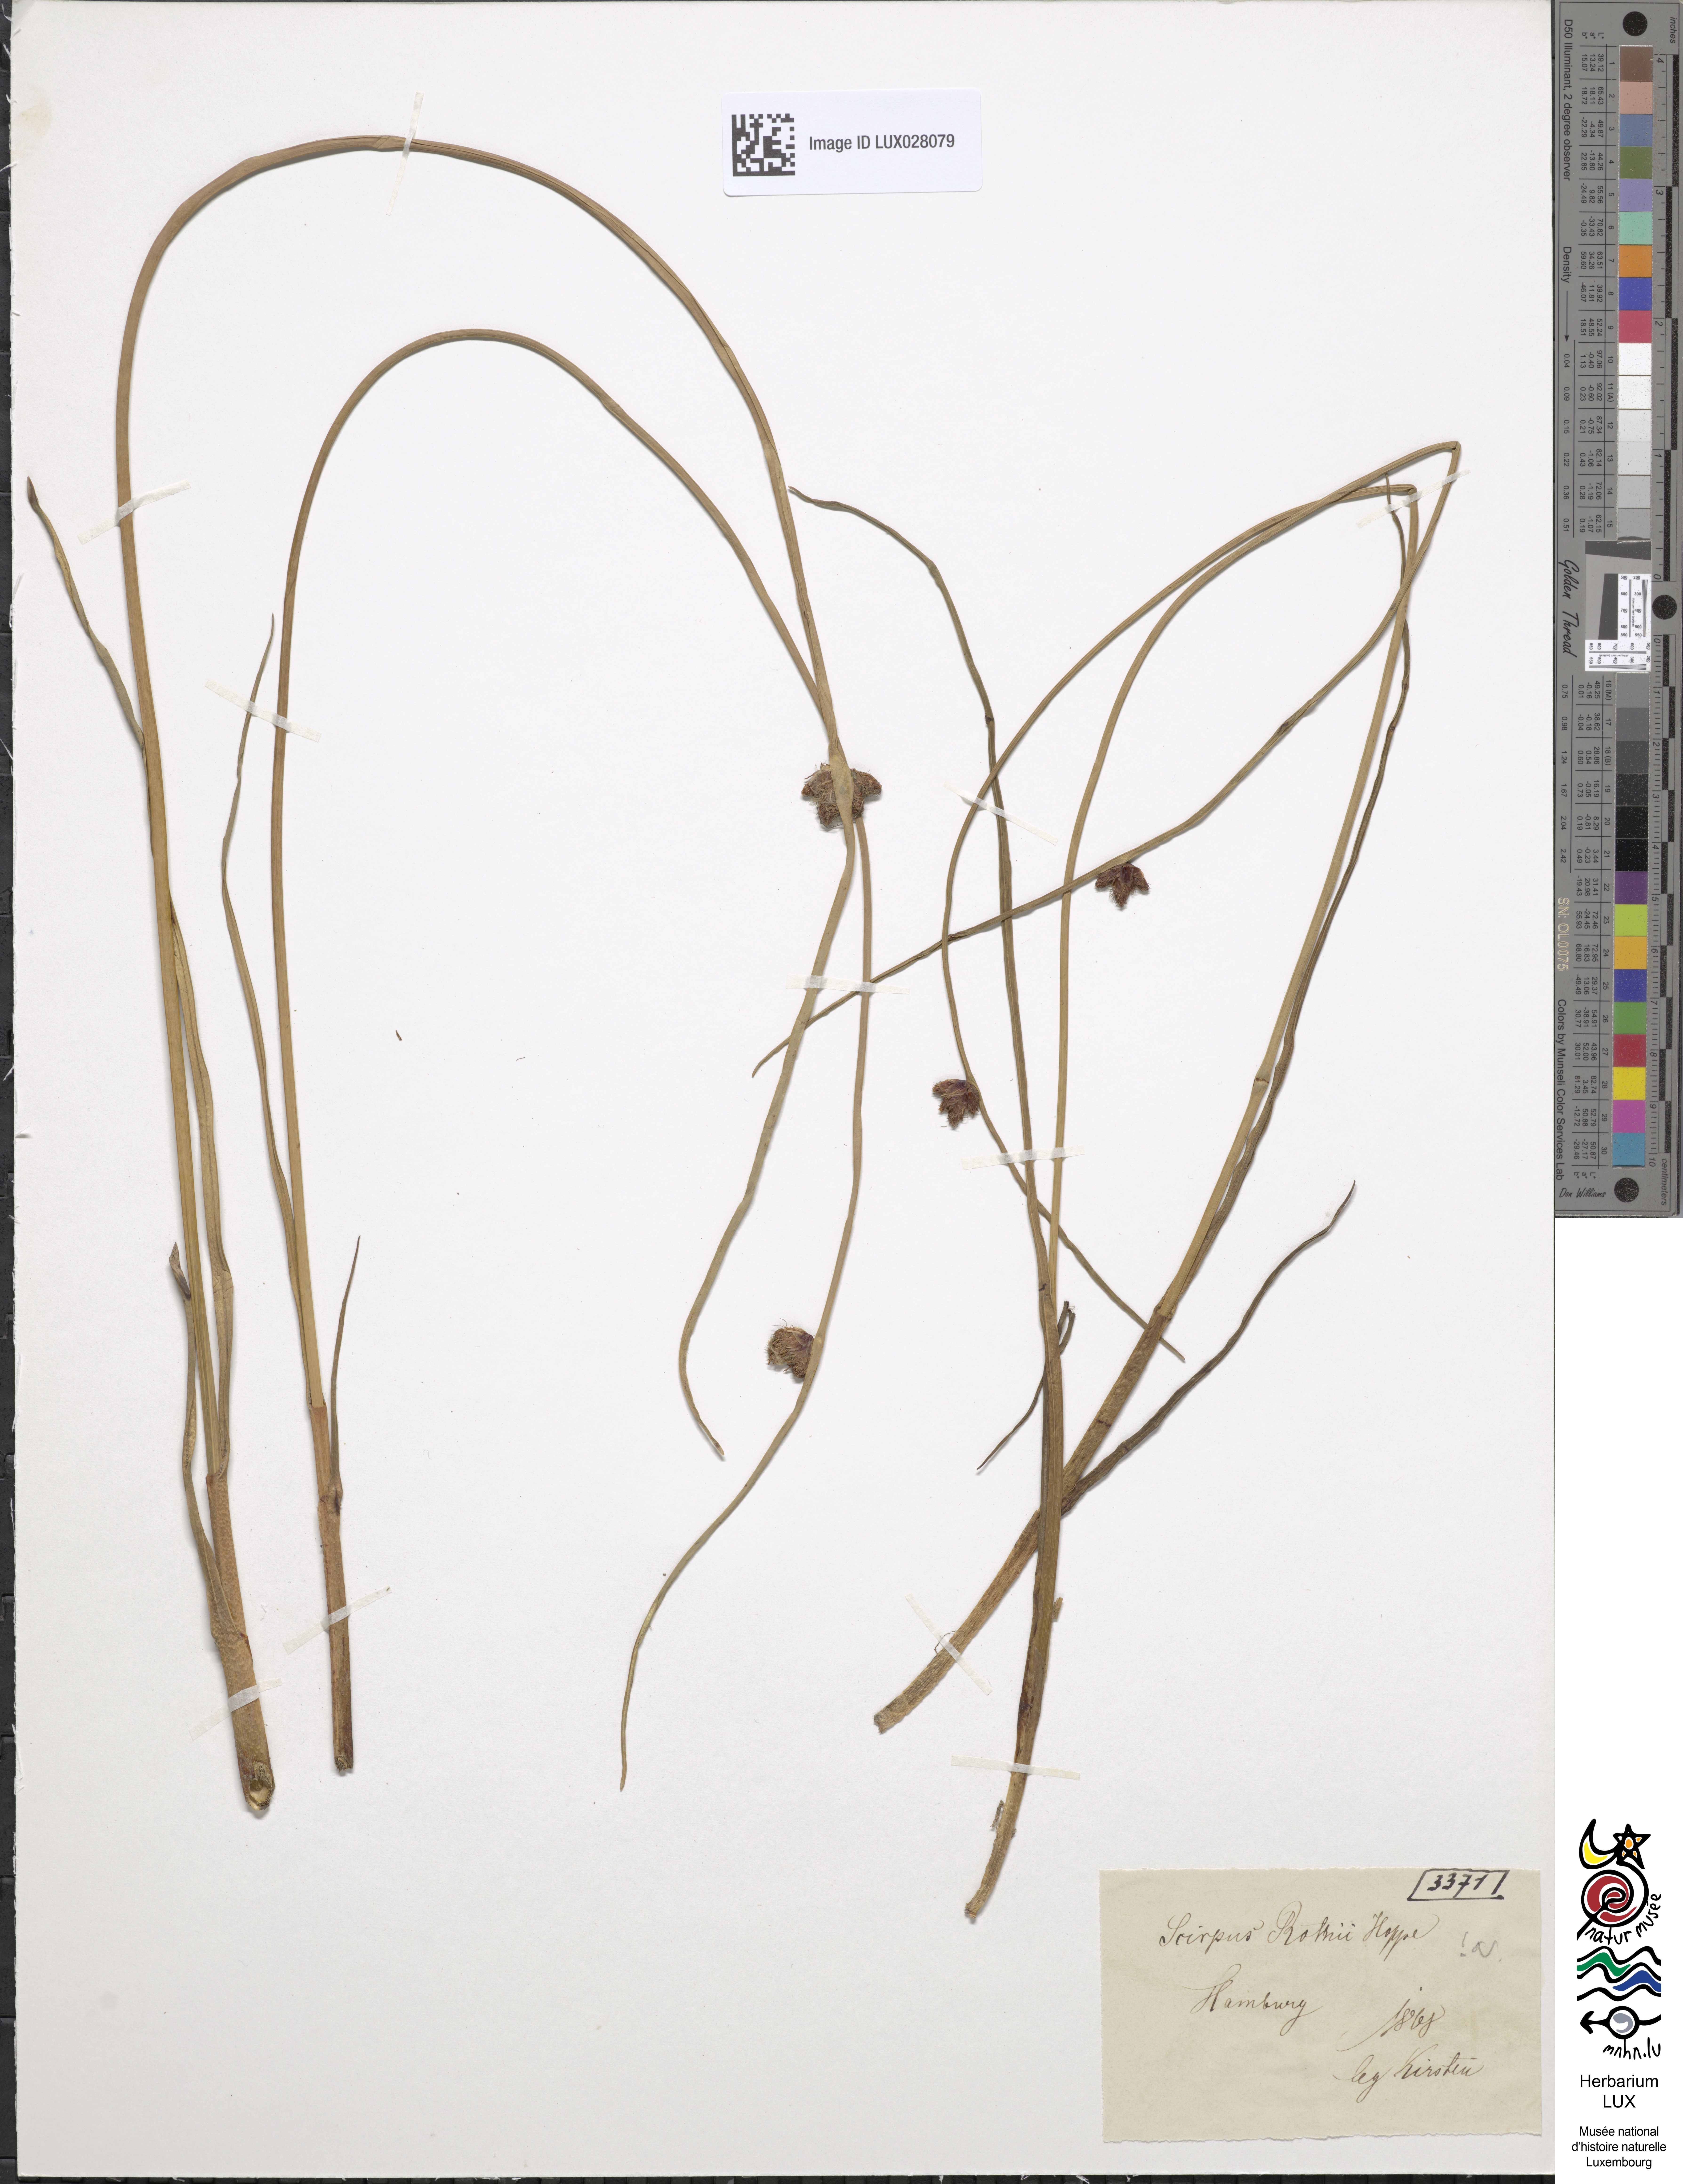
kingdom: Plantae
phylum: Tracheophyta
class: Liliopsida
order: Poales
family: Cyperaceae
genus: Schoenoplectus
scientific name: Schoenoplectus pungens
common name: Sharp club-rush
